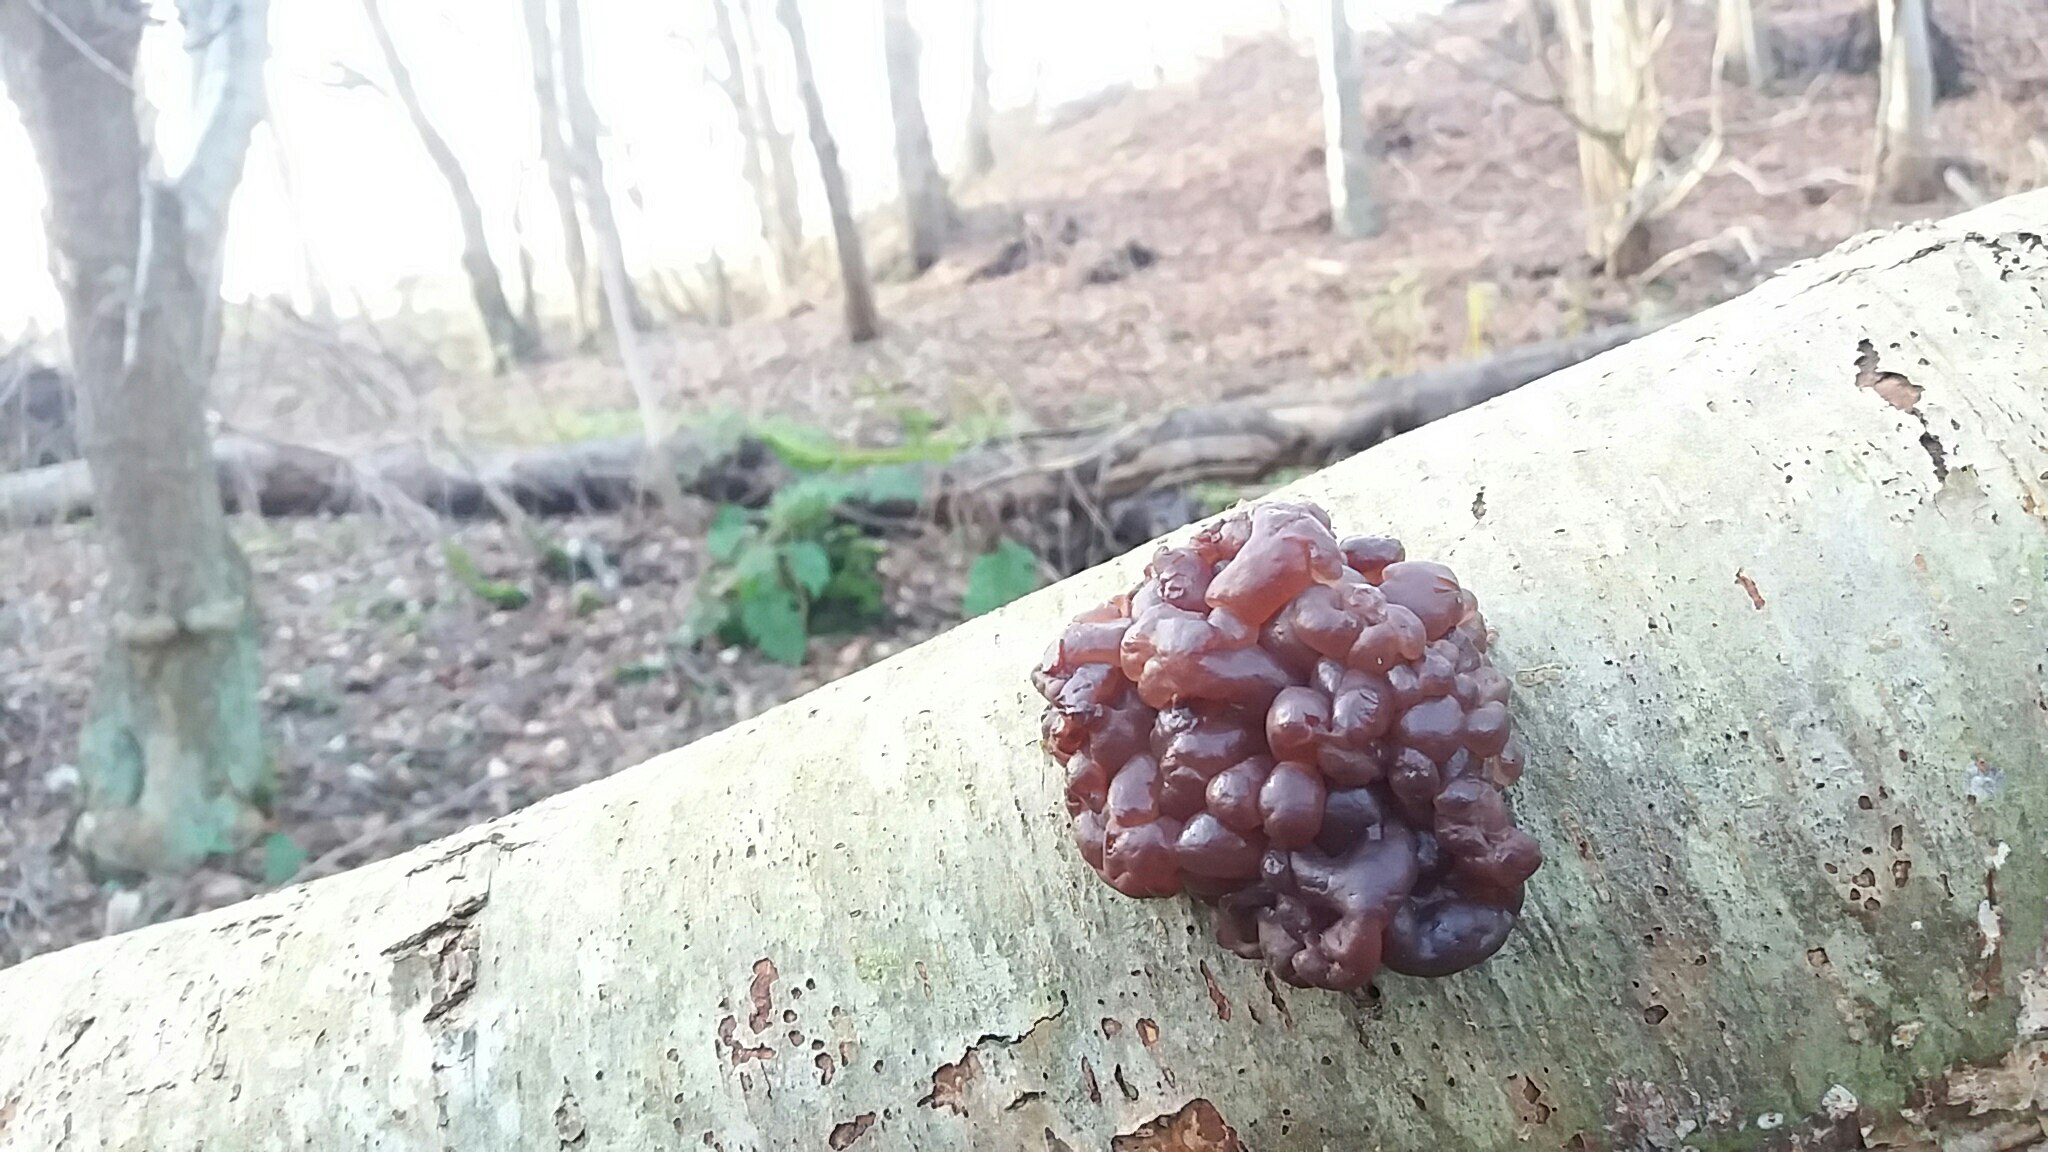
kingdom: Fungi
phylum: Ascomycota
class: Leotiomycetes
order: Helotiales
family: Gelatinodiscaceae
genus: Ascotremella
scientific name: Ascotremella faginea
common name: hjerne-bævreskive
